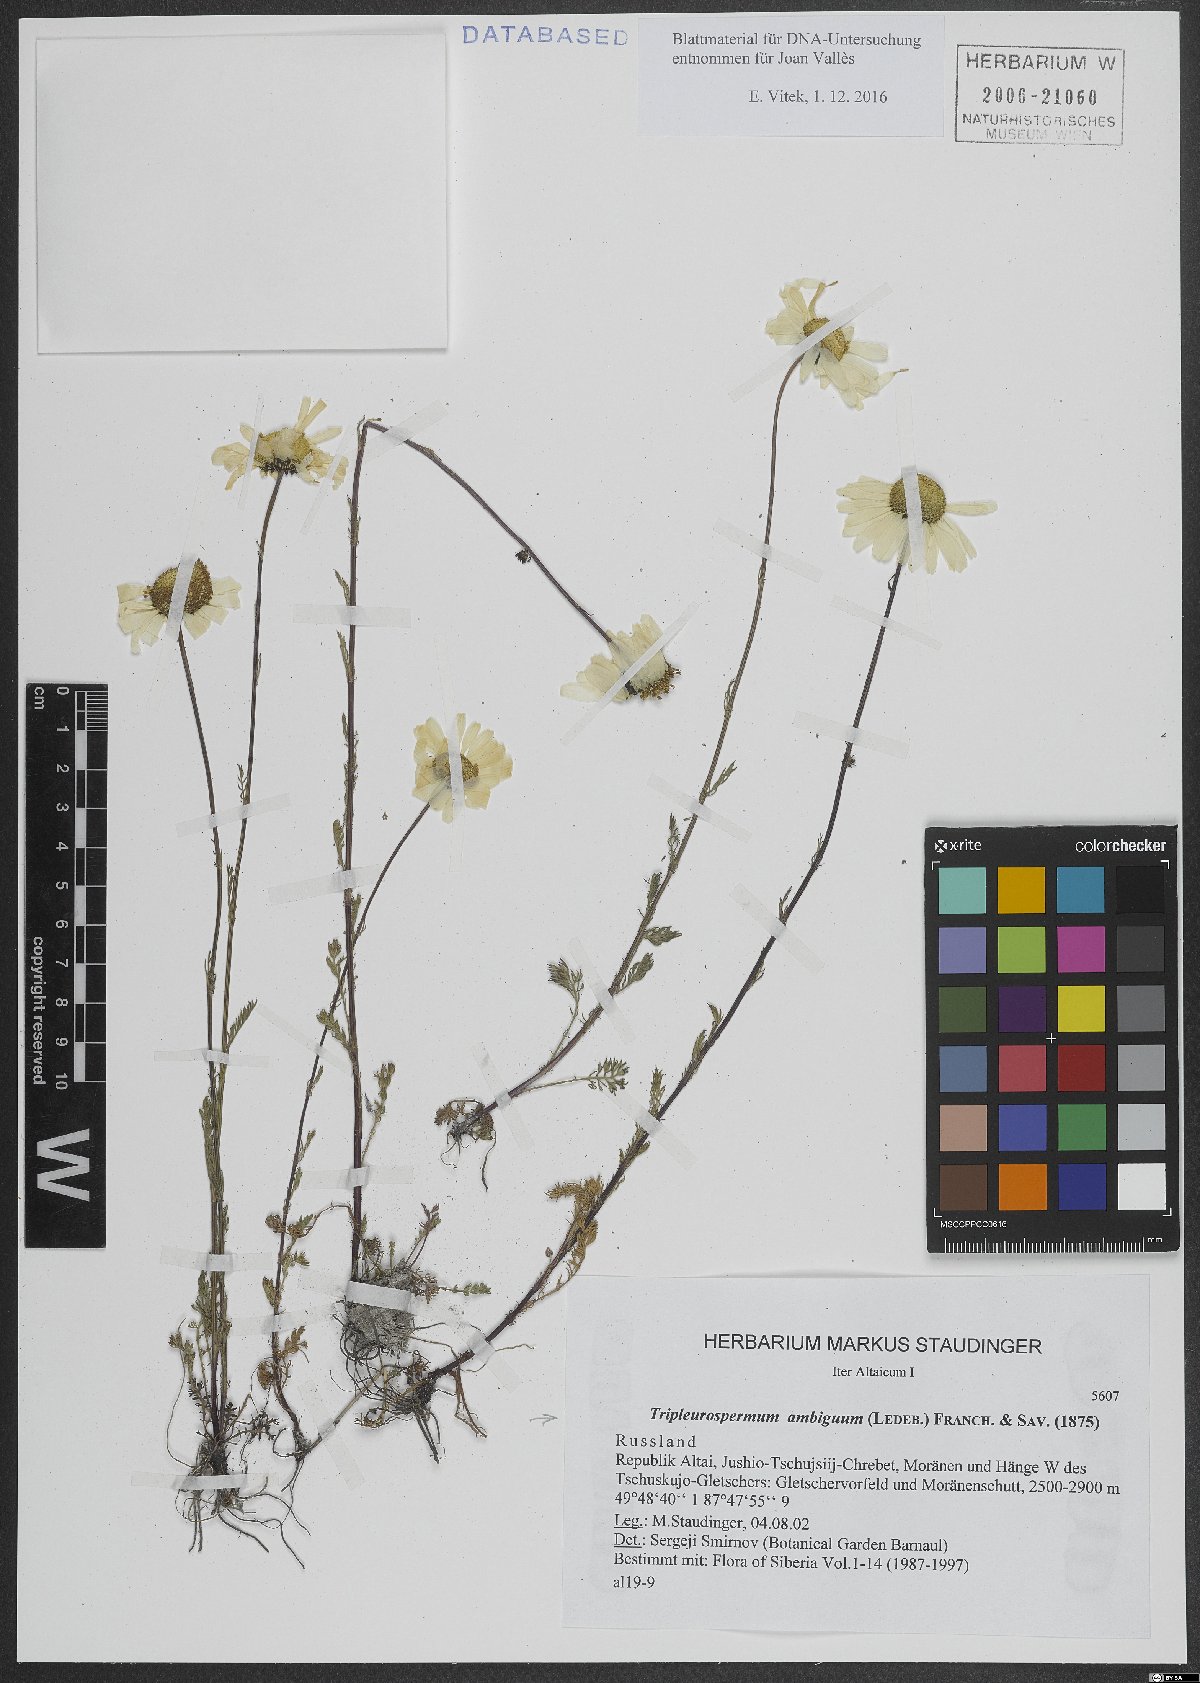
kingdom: Plantae
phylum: Tracheophyta
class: Magnoliopsida
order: Asterales
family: Asteraceae
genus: Tripleurospermum
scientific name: Tripleurospermum ambiguum
